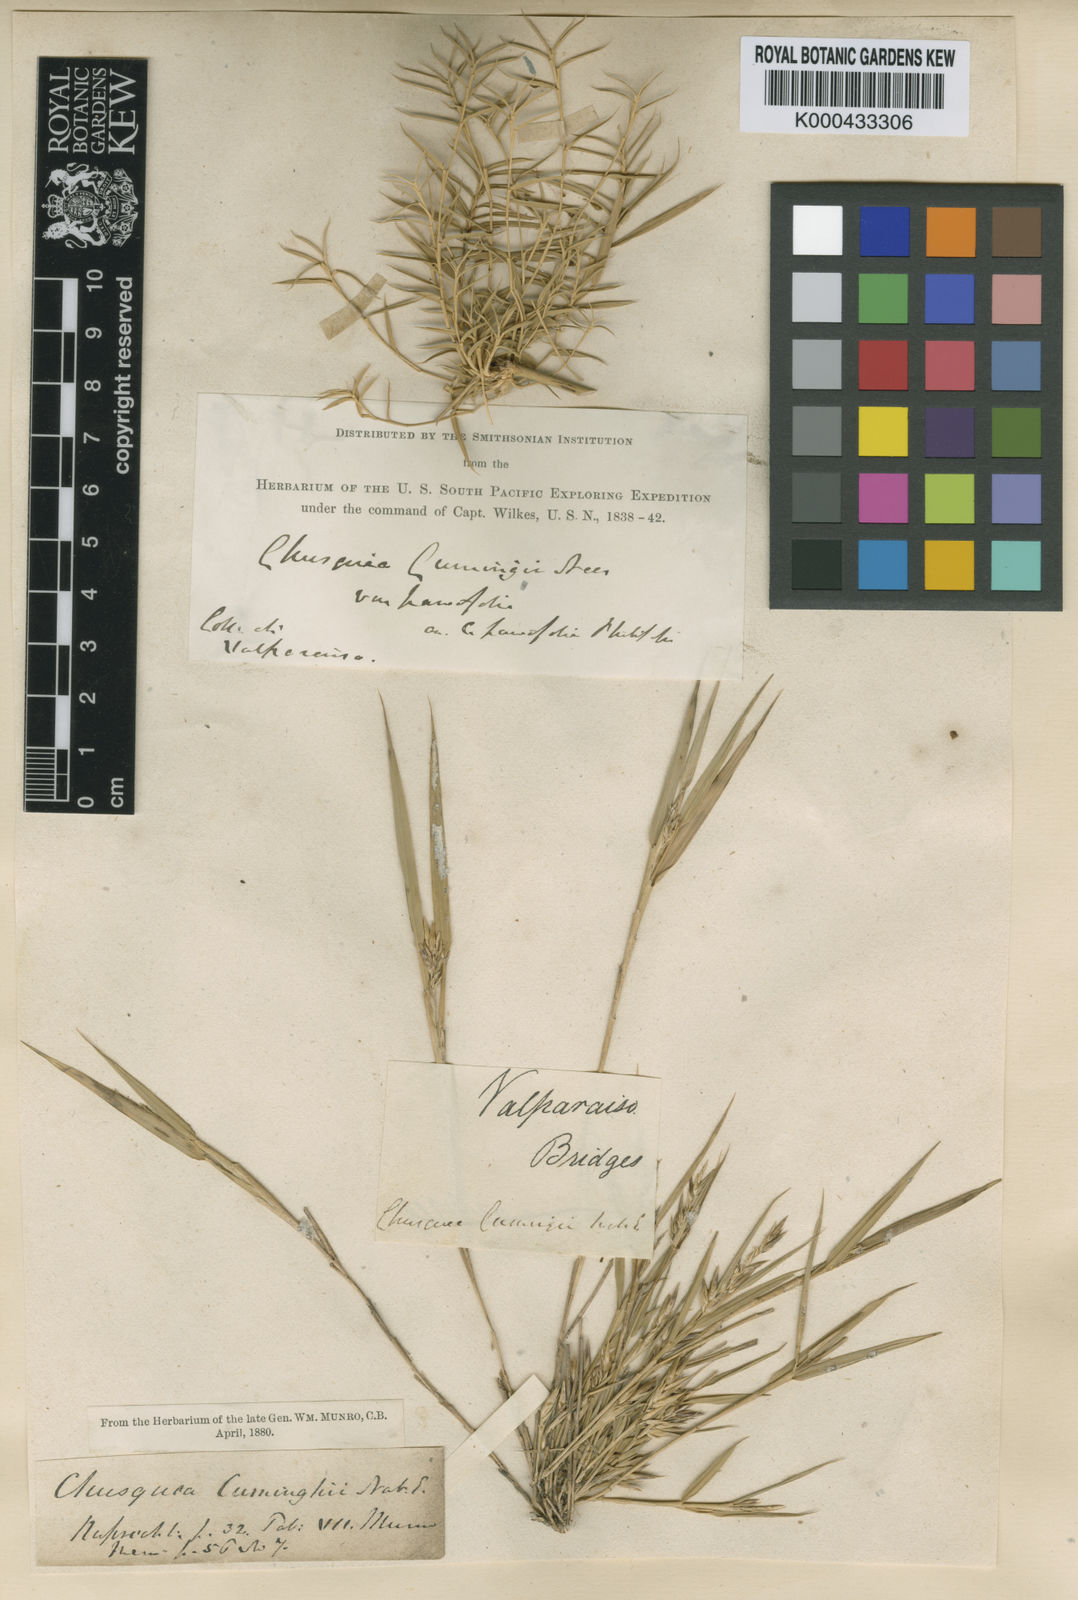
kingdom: Plantae
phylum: Tracheophyta
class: Liliopsida
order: Poales
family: Poaceae
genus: Chusquea
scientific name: Chusquea cumingii
